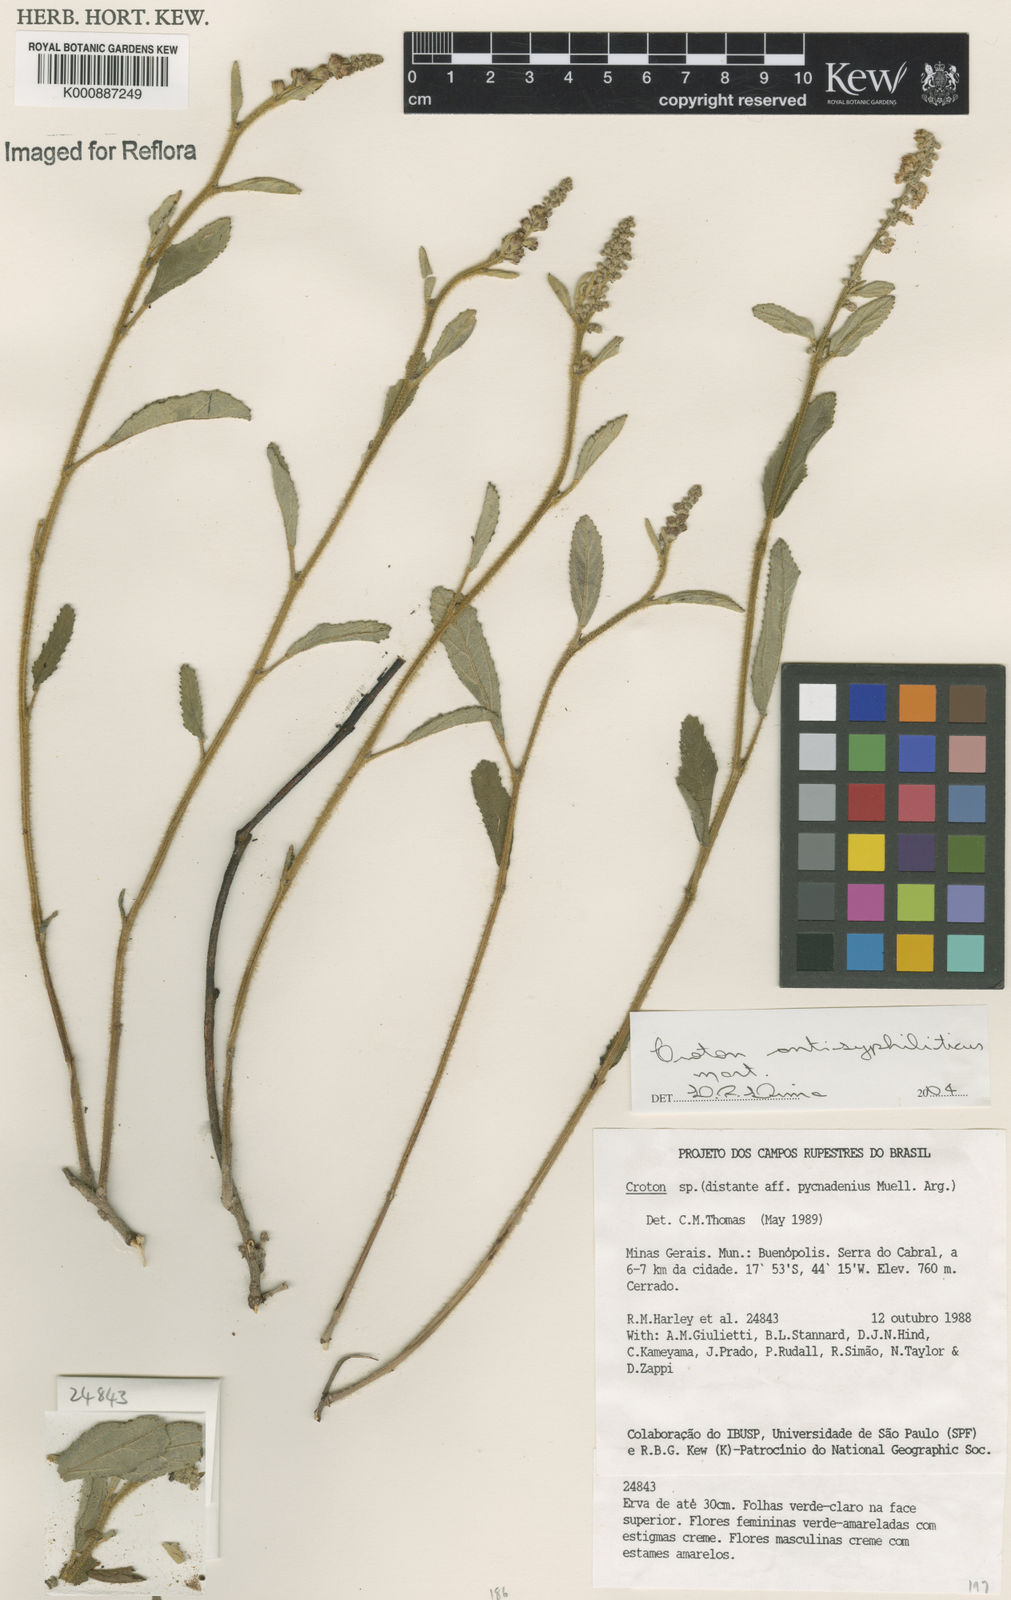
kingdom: Plantae
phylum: Tracheophyta
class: Magnoliopsida
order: Malpighiales
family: Euphorbiaceae
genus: Croton
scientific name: Croton antisyphiliticus
